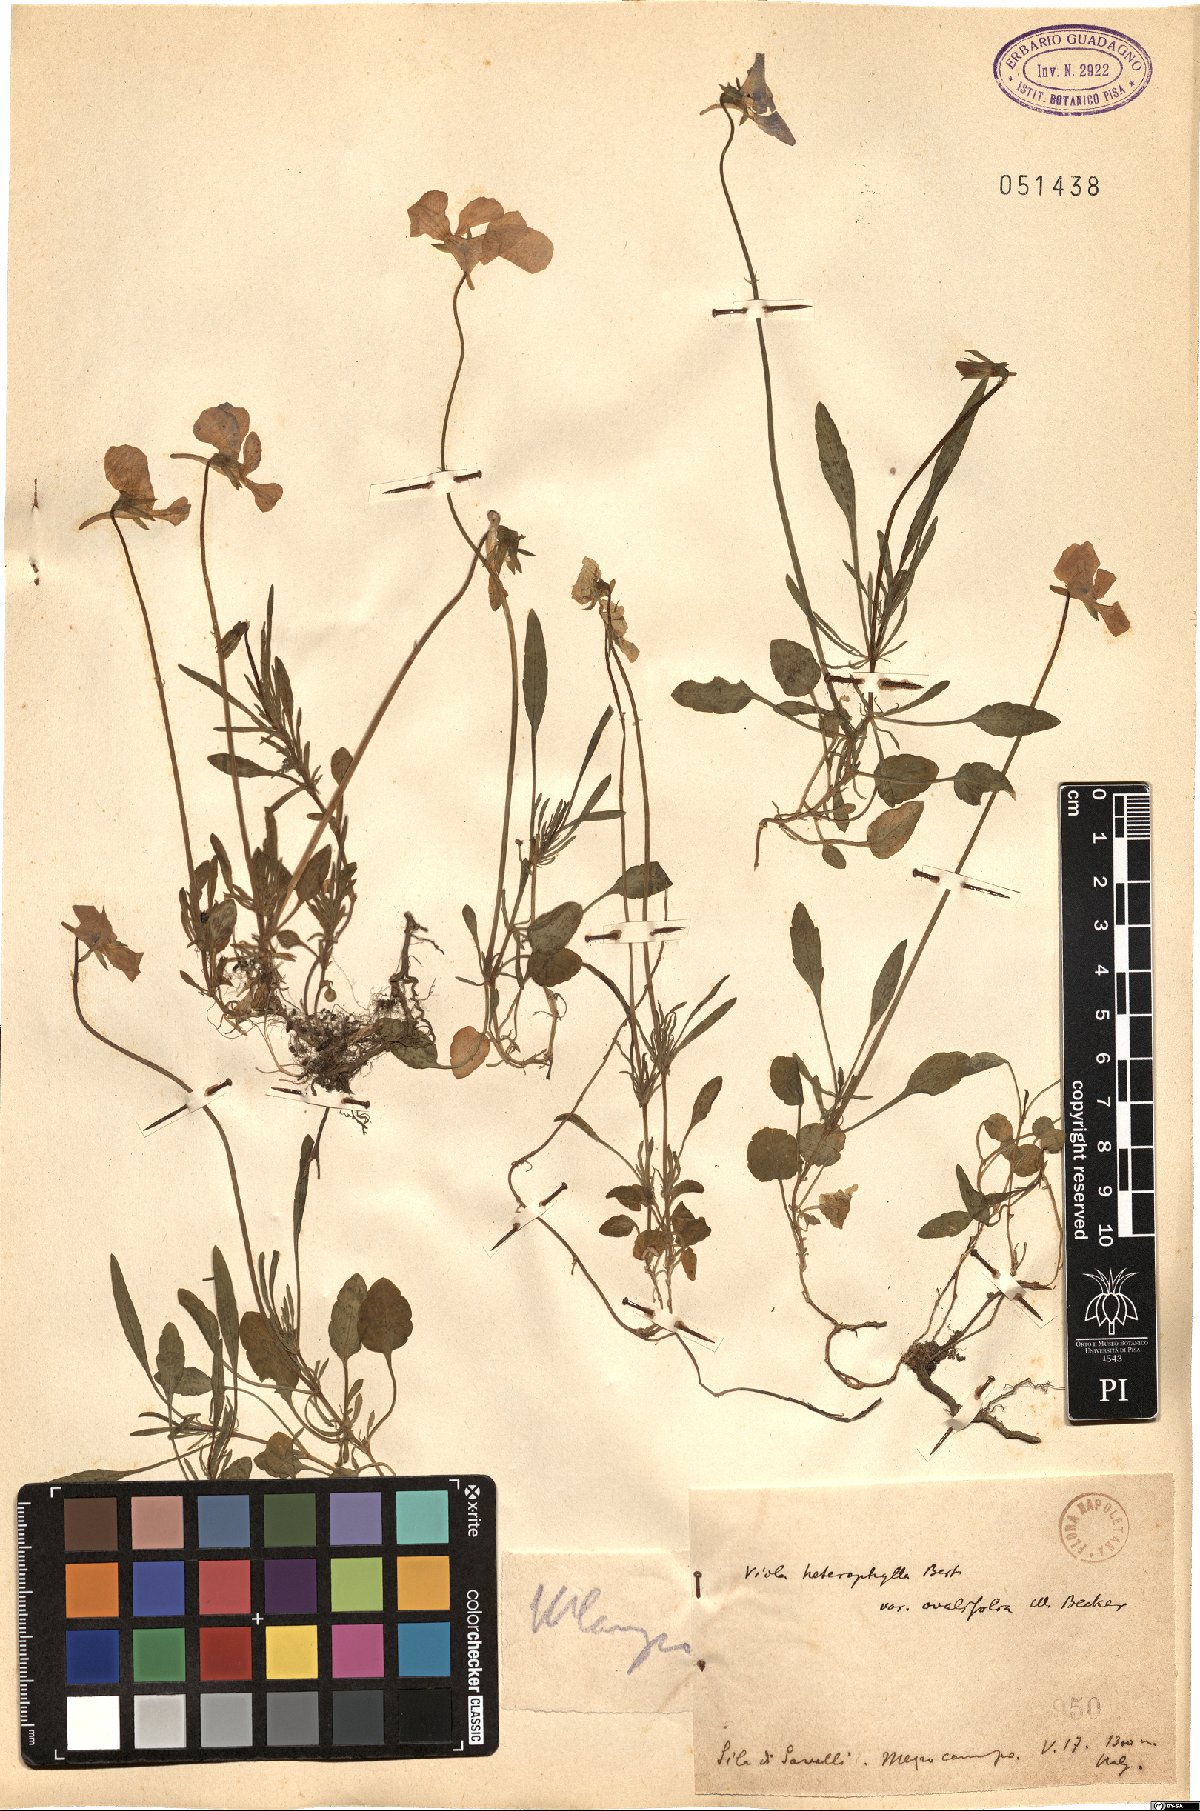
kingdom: Plantae
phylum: Tracheophyta
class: Magnoliopsida
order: Malpighiales
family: Violaceae
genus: Viola
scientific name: Viola heterophylla
